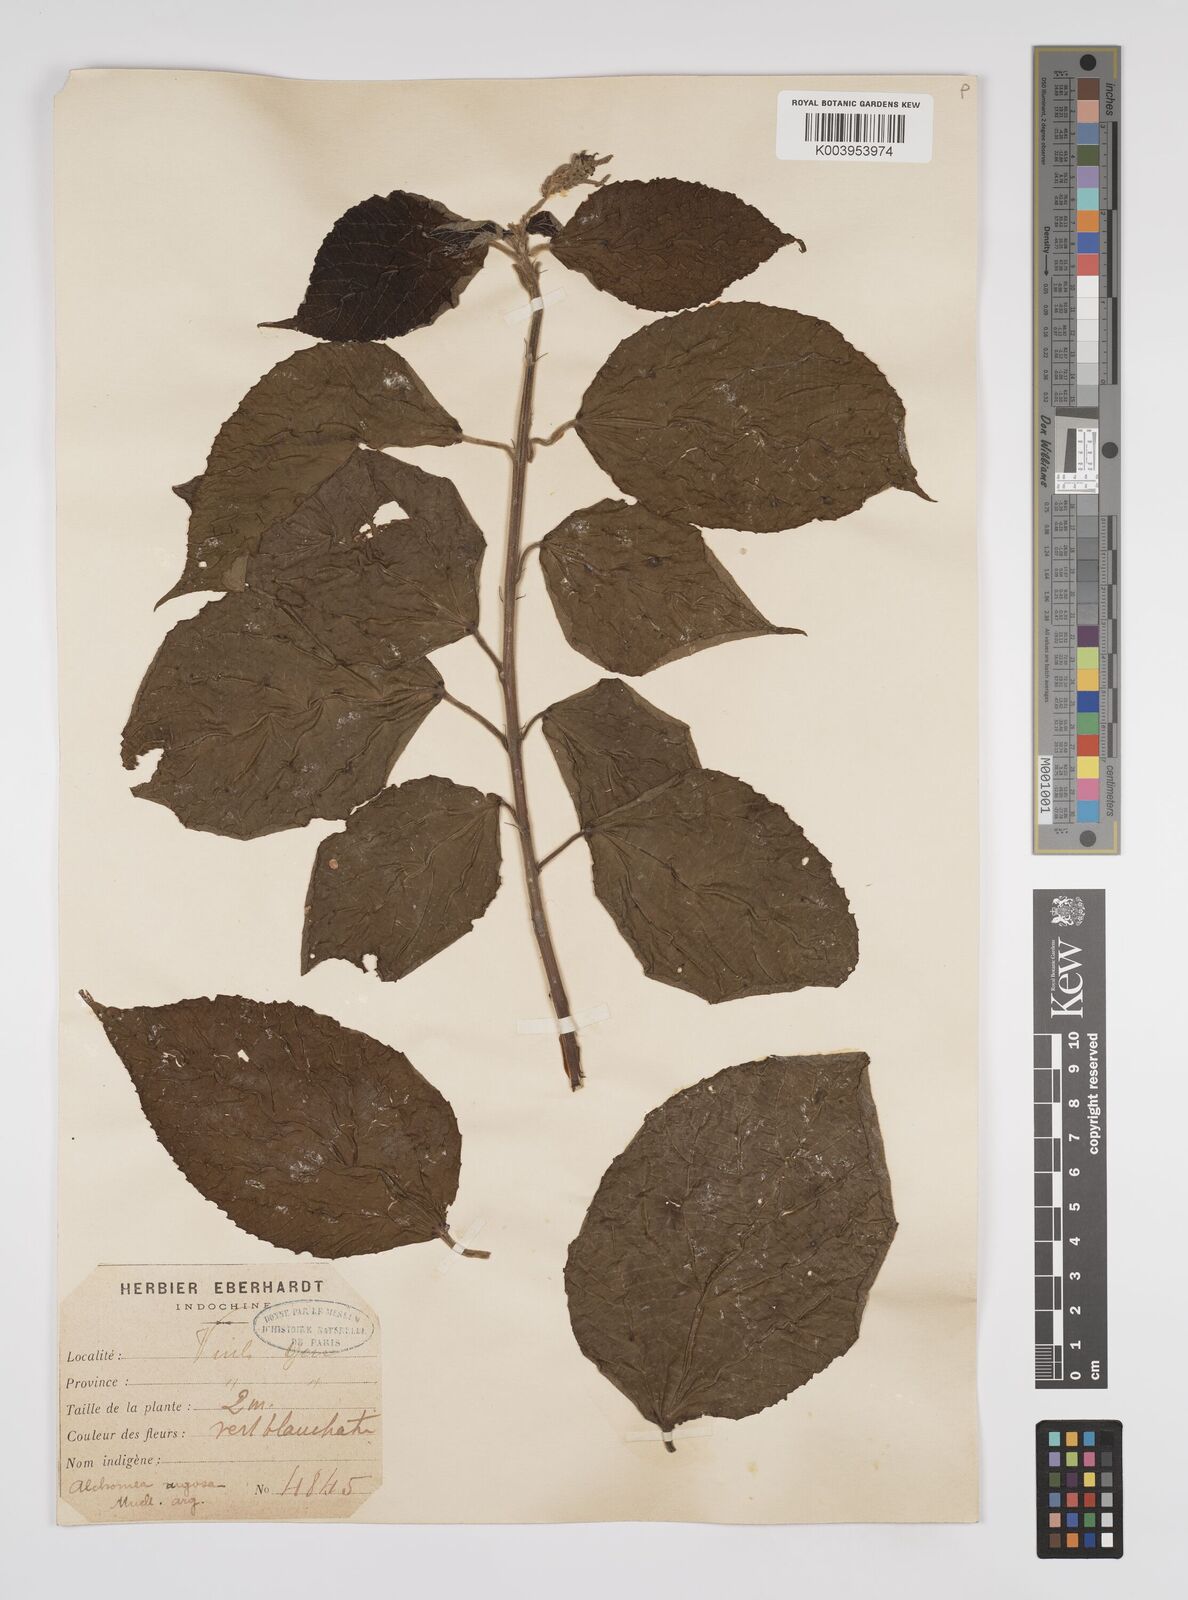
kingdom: Plantae
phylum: Tracheophyta
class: Magnoliopsida
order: Malpighiales
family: Euphorbiaceae
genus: Alchornea
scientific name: Alchornea tiliifolia
